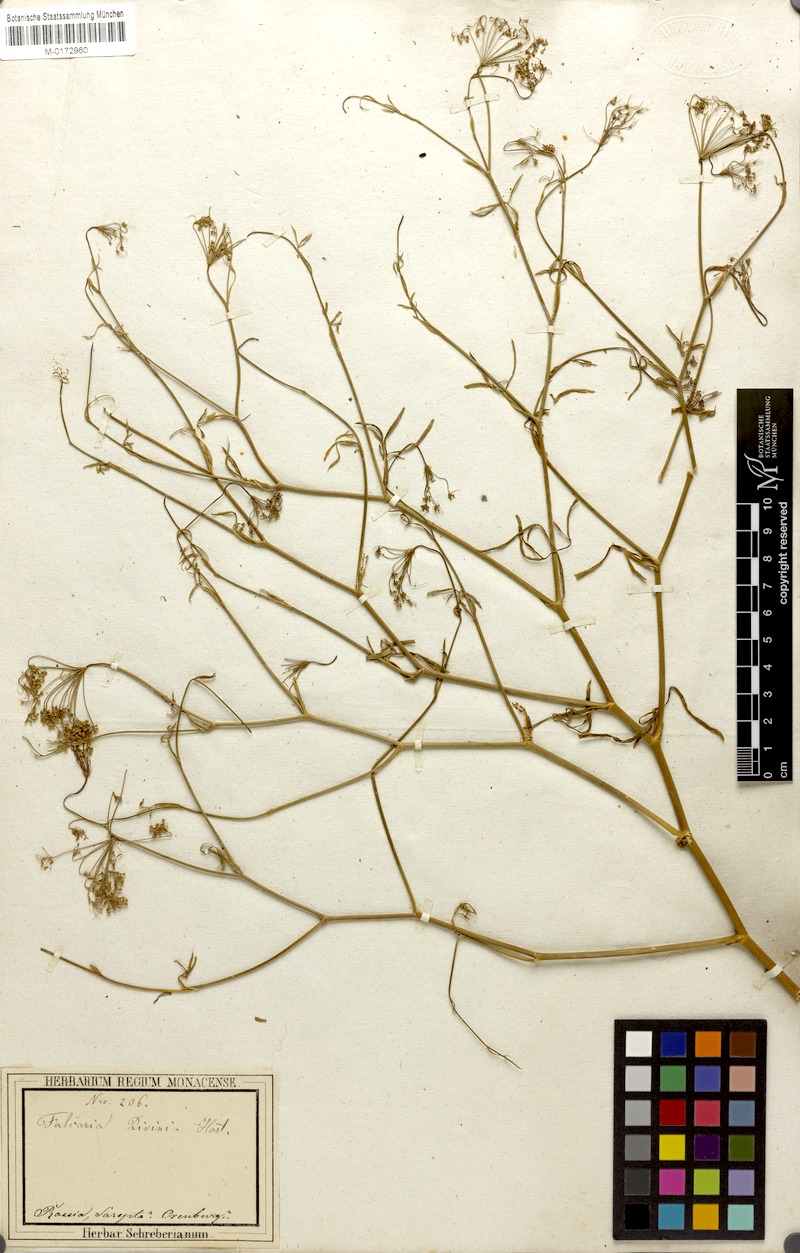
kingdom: Plantae
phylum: Tracheophyta
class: Magnoliopsida
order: Apiales
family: Apiaceae
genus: Falcaria
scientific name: Falcaria vulgaris
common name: Longleaf
